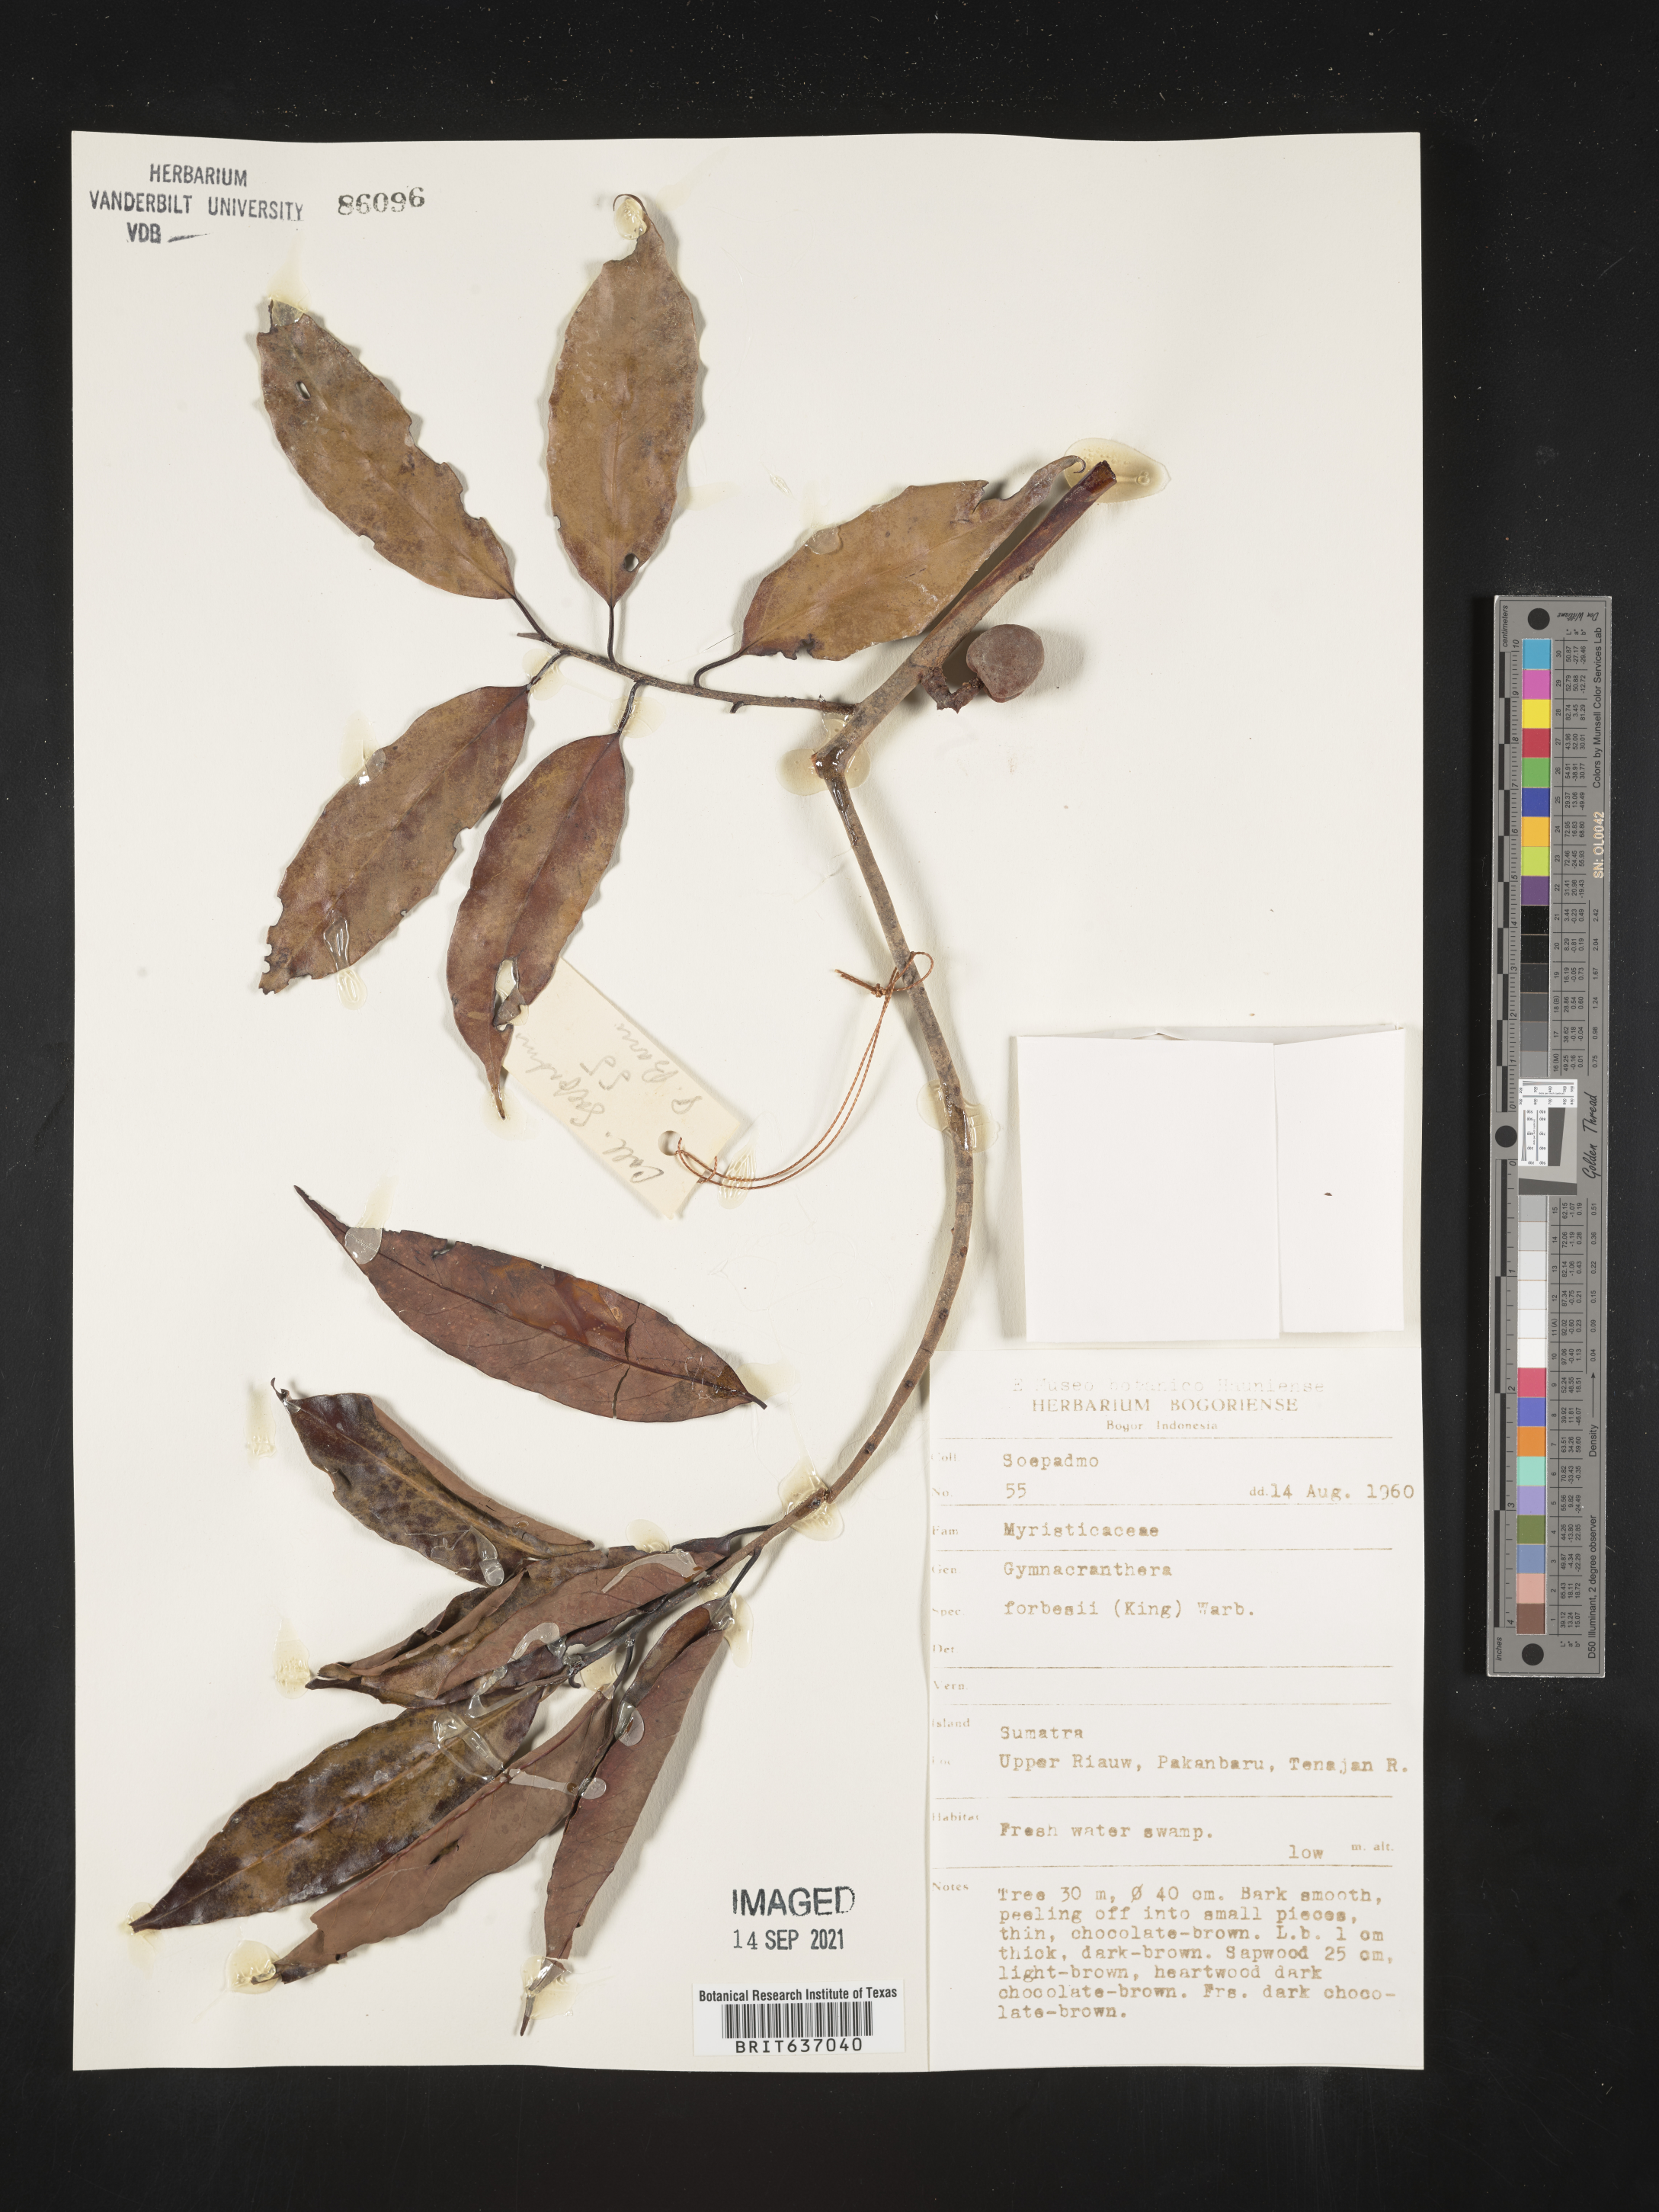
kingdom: Plantae
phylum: Tracheophyta
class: Magnoliopsida
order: Magnoliales
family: Myristicaceae
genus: Gymnacranthera
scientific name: Gymnacranthera
